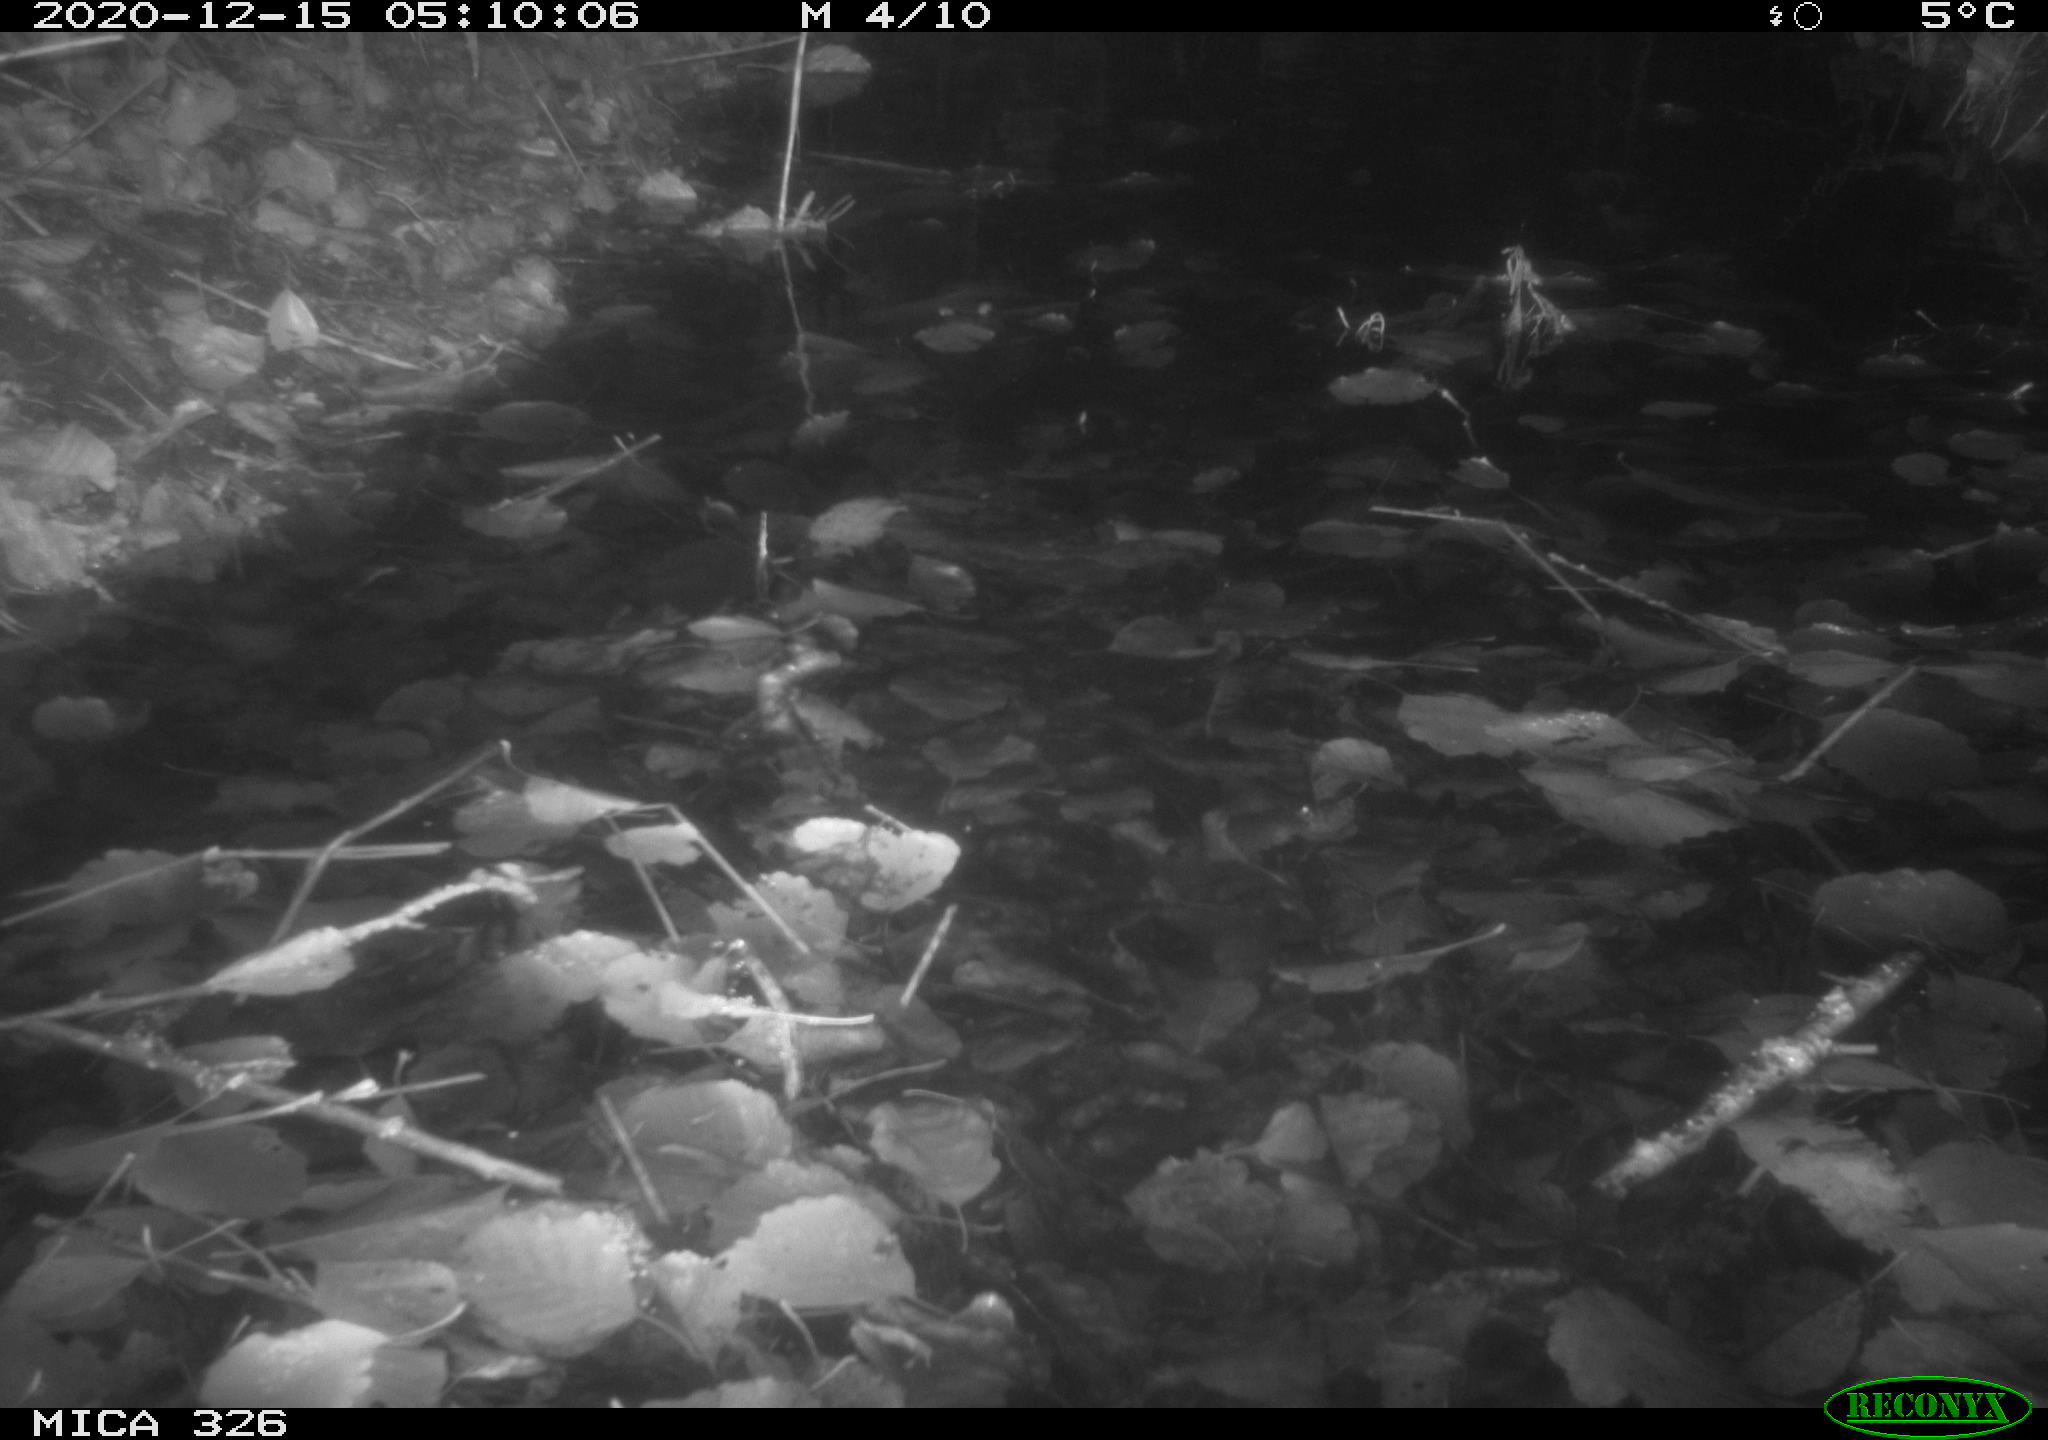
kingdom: Animalia
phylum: Chordata
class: Mammalia
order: Rodentia
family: Cricetidae
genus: Ondatra
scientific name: Ondatra zibethicus
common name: Muskrat
